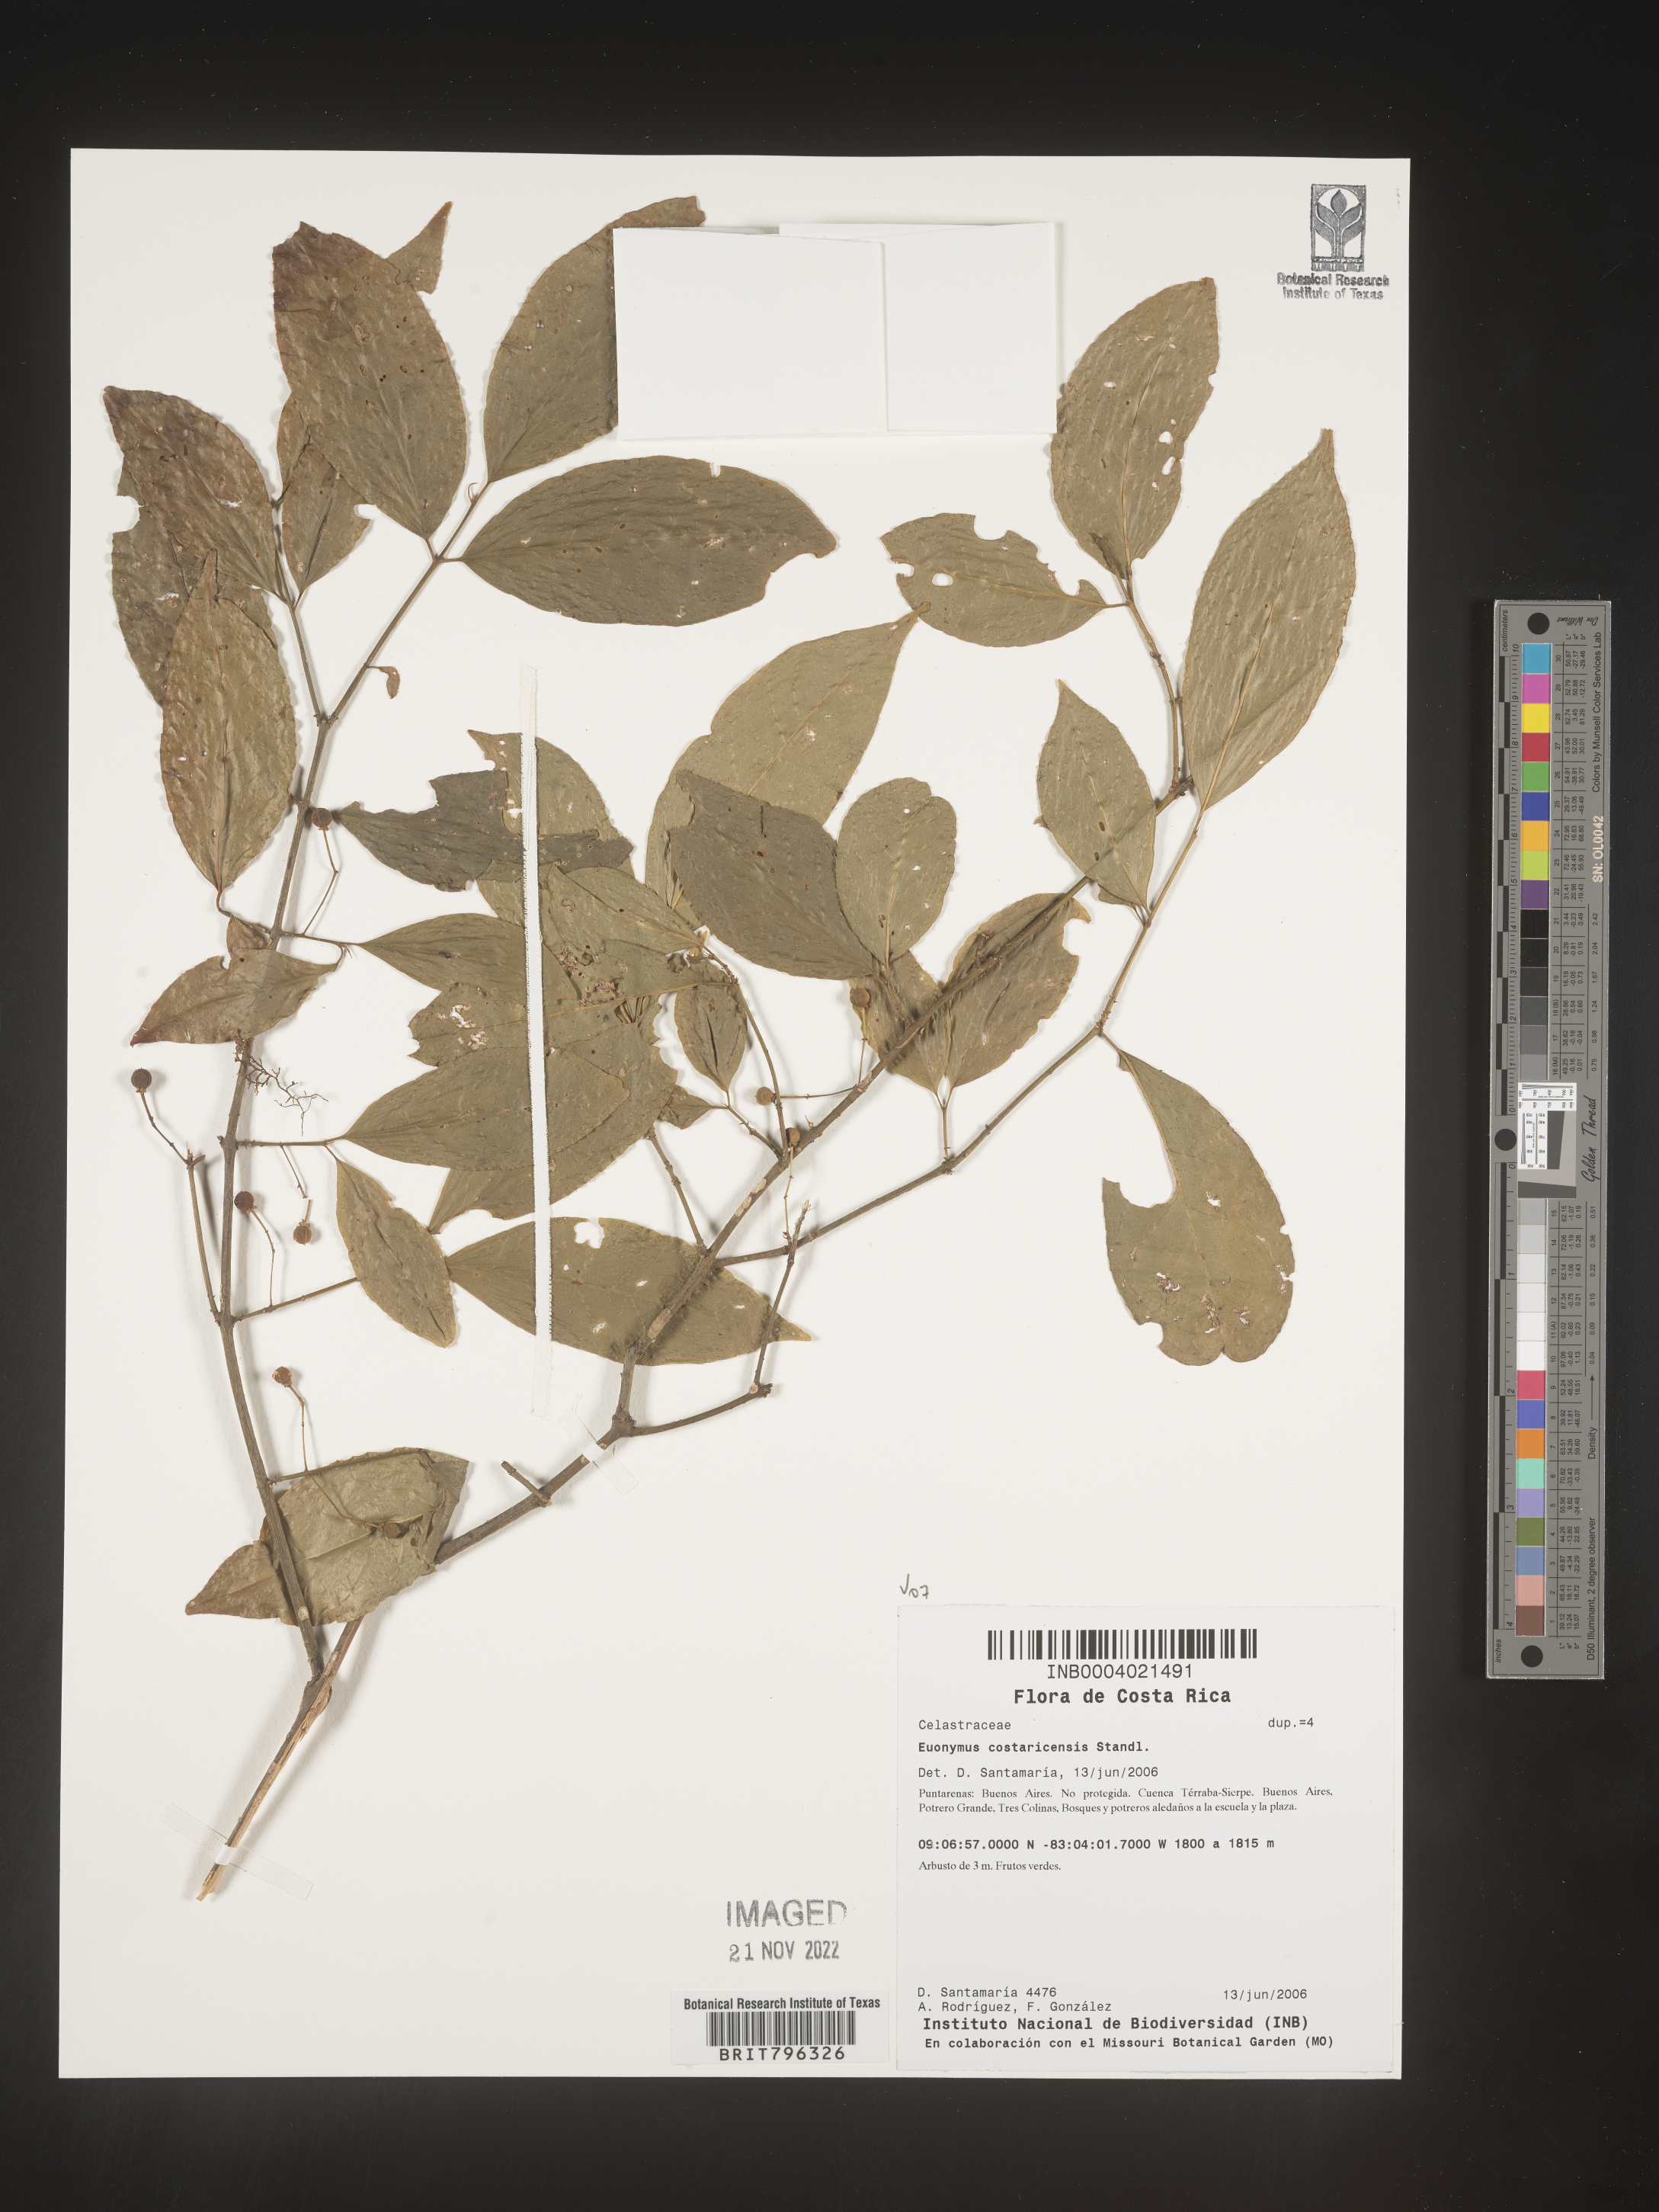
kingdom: Plantae
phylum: Tracheophyta
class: Magnoliopsida
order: Celastrales
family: Celastraceae
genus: Euonymus
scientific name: Euonymus costaricensis
